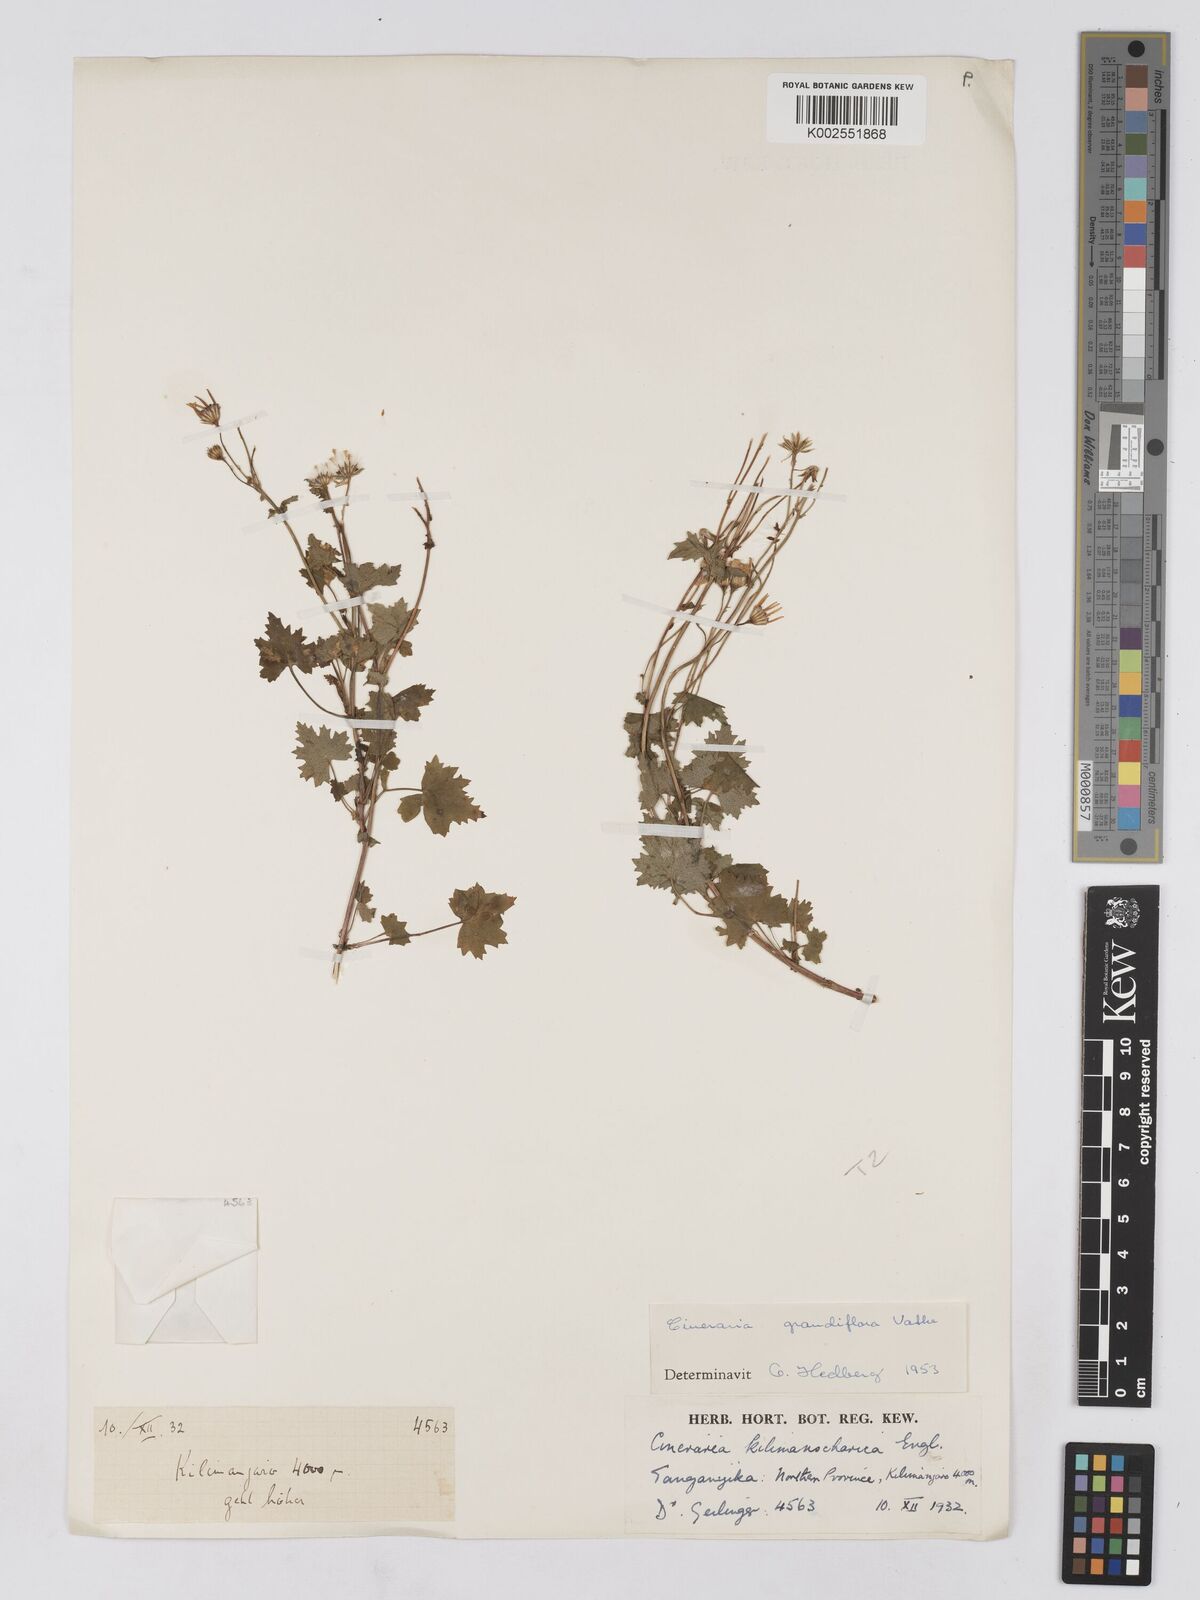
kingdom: Plantae
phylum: Tracheophyta
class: Magnoliopsida
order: Asterales
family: Asteraceae
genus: Cineraria
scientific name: Cineraria deltoidea
